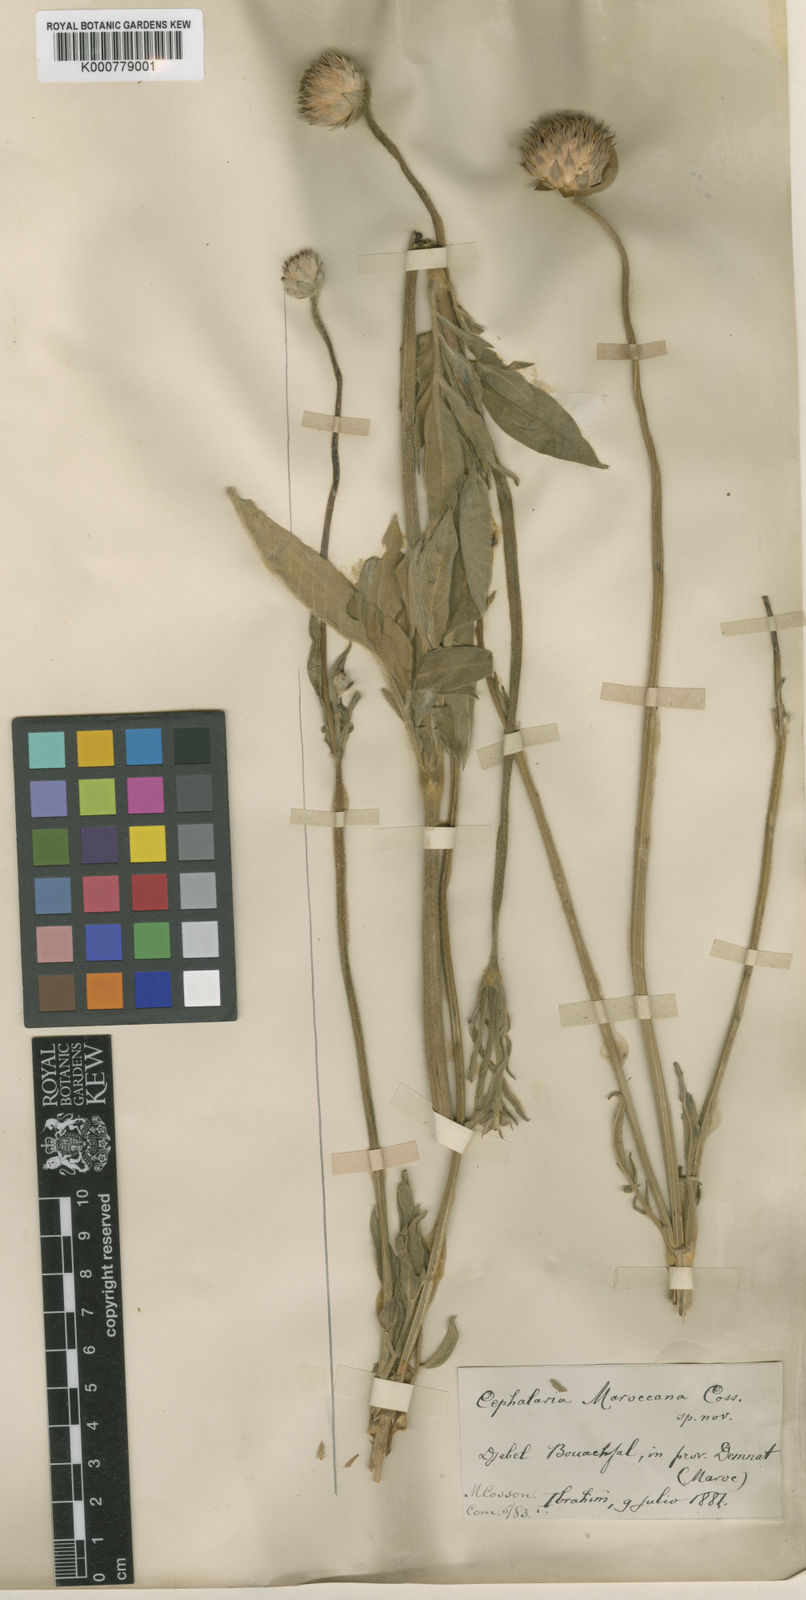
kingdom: Plantae
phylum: Tracheophyta
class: Magnoliopsida
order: Dipsacales
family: Caprifoliaceae
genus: Cephalaria
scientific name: Cephalaria
